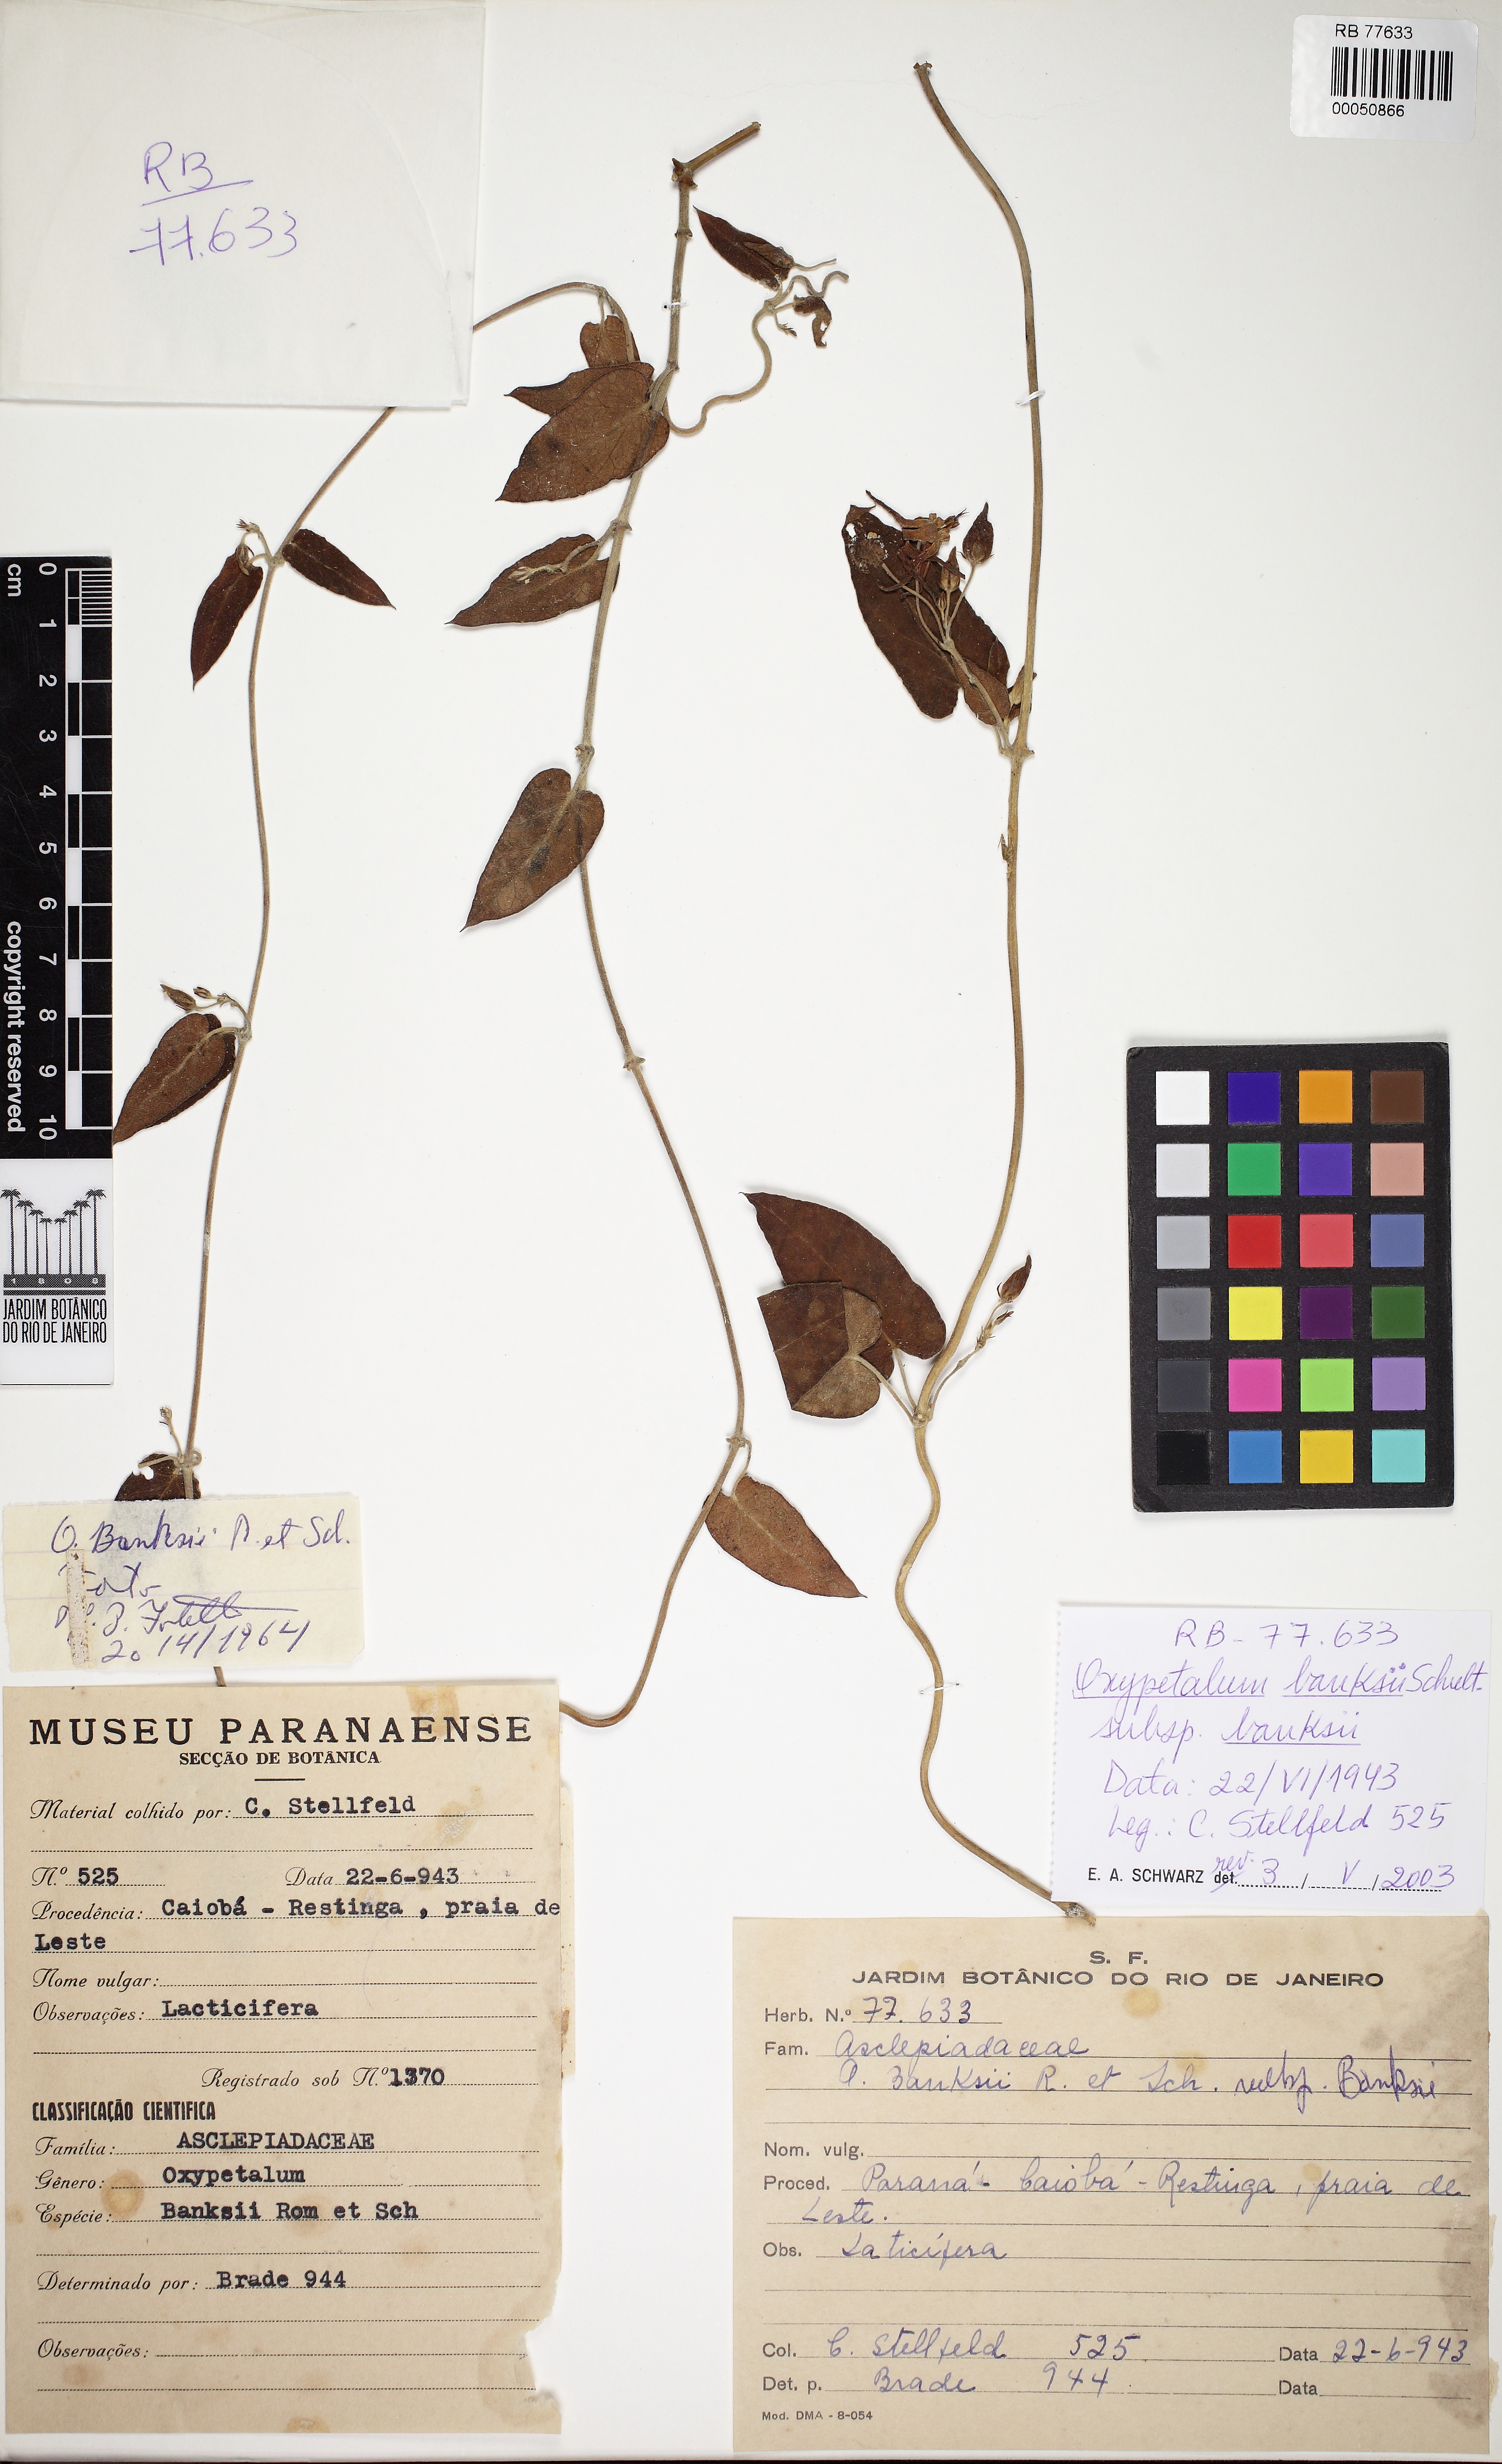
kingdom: Plantae
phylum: Tracheophyta
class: Magnoliopsida
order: Gentianales
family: Apocynaceae
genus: Oxypetalum
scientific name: Oxypetalum banksii
